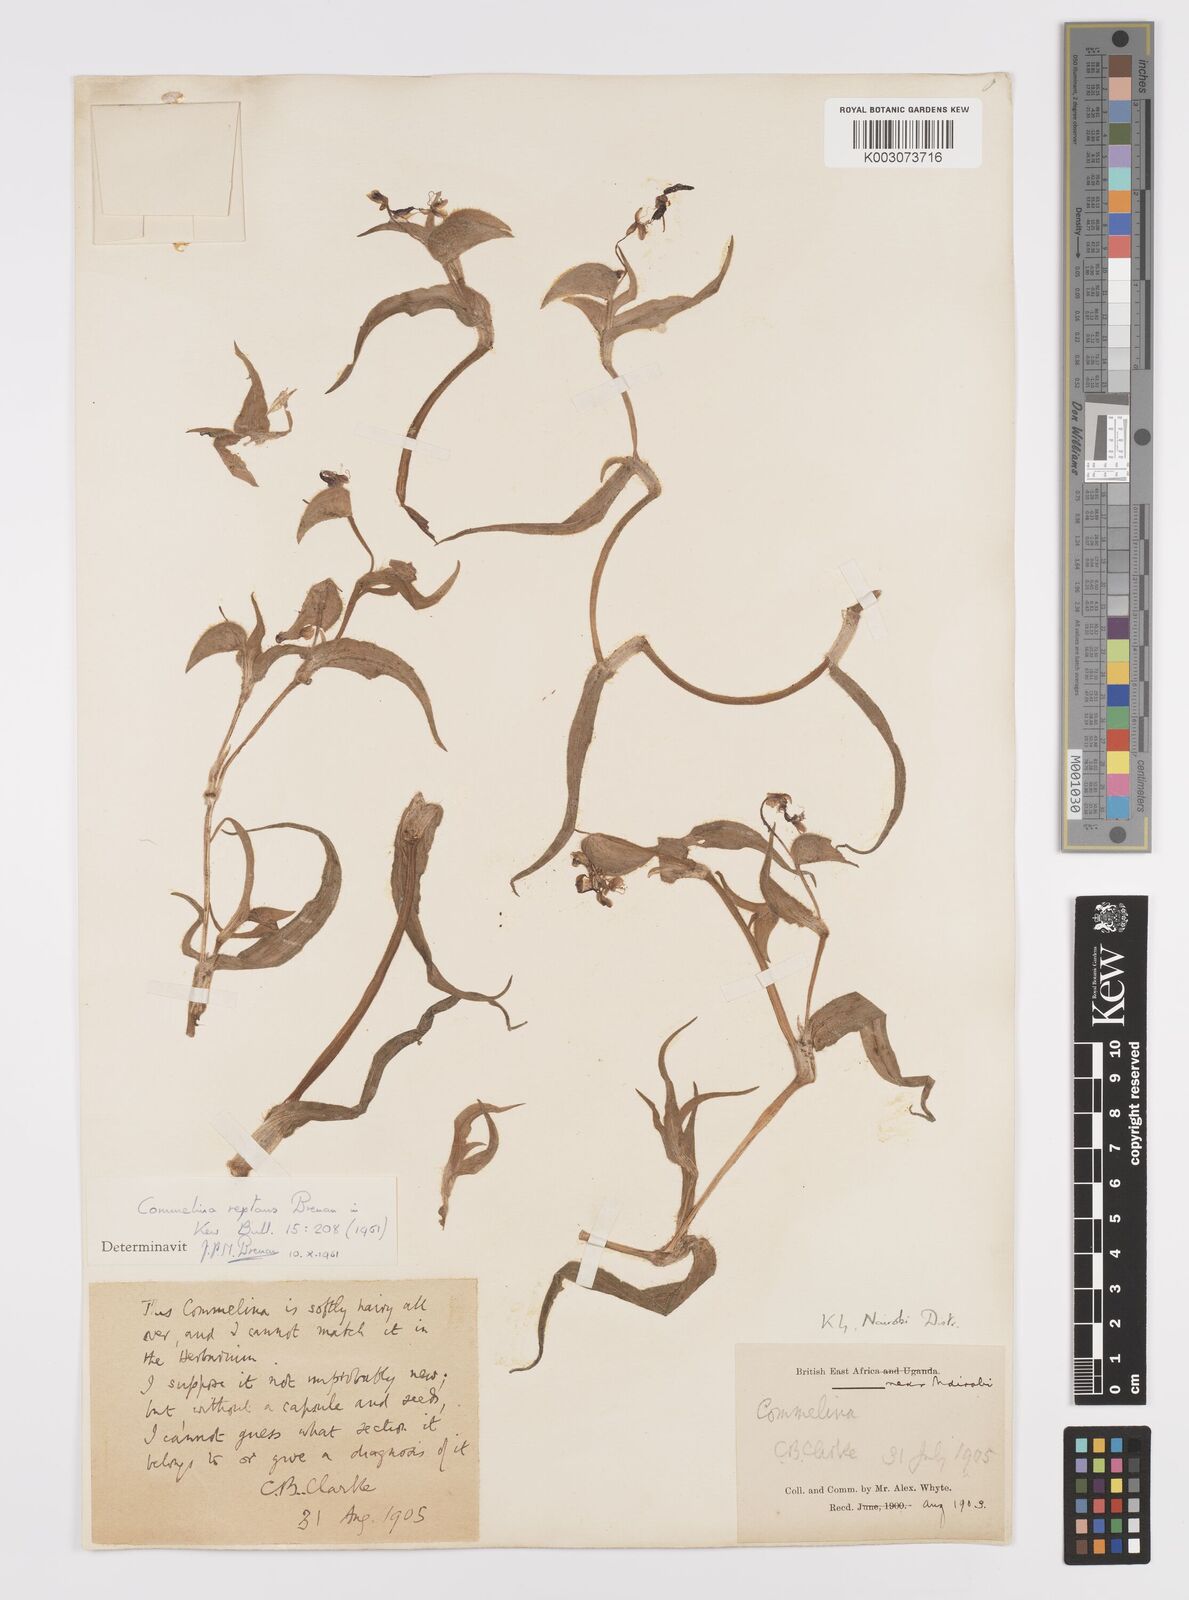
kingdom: Plantae
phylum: Tracheophyta
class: Liliopsida
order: Commelinales
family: Commelinaceae
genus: Commelina
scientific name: Commelina reptans
